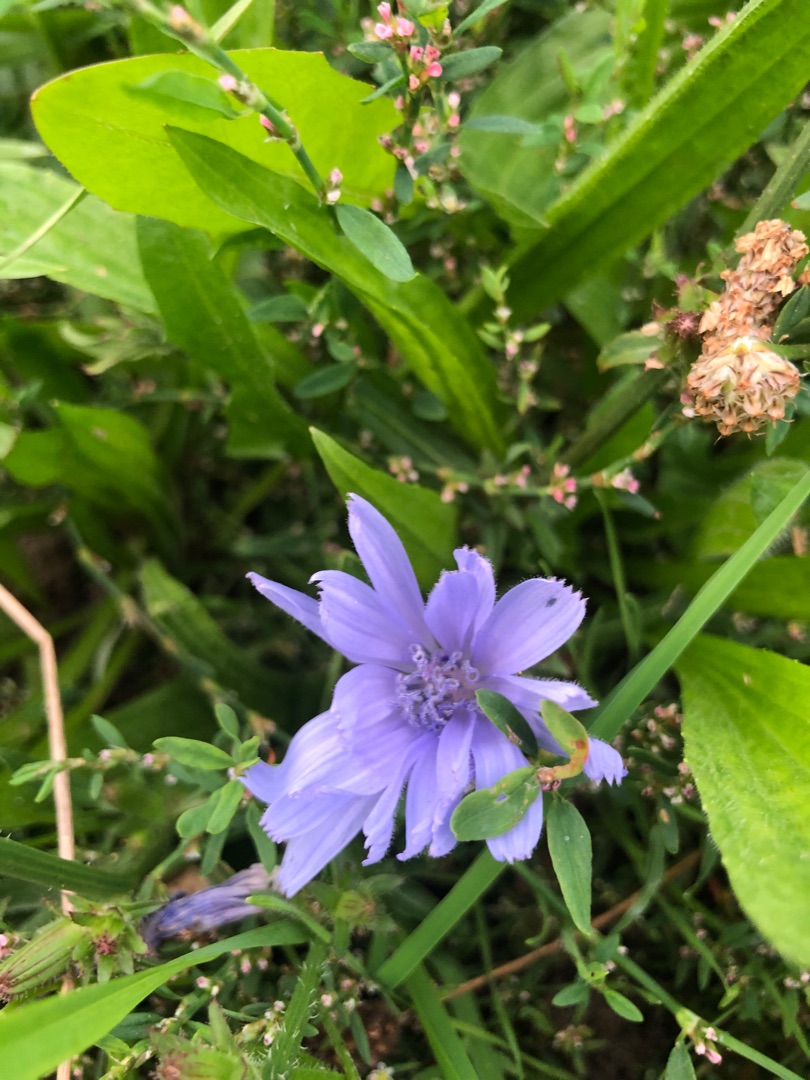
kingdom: Plantae
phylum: Tracheophyta
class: Magnoliopsida
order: Asterales
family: Asteraceae
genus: Cichorium
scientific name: Cichorium intybus
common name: Cikorie
